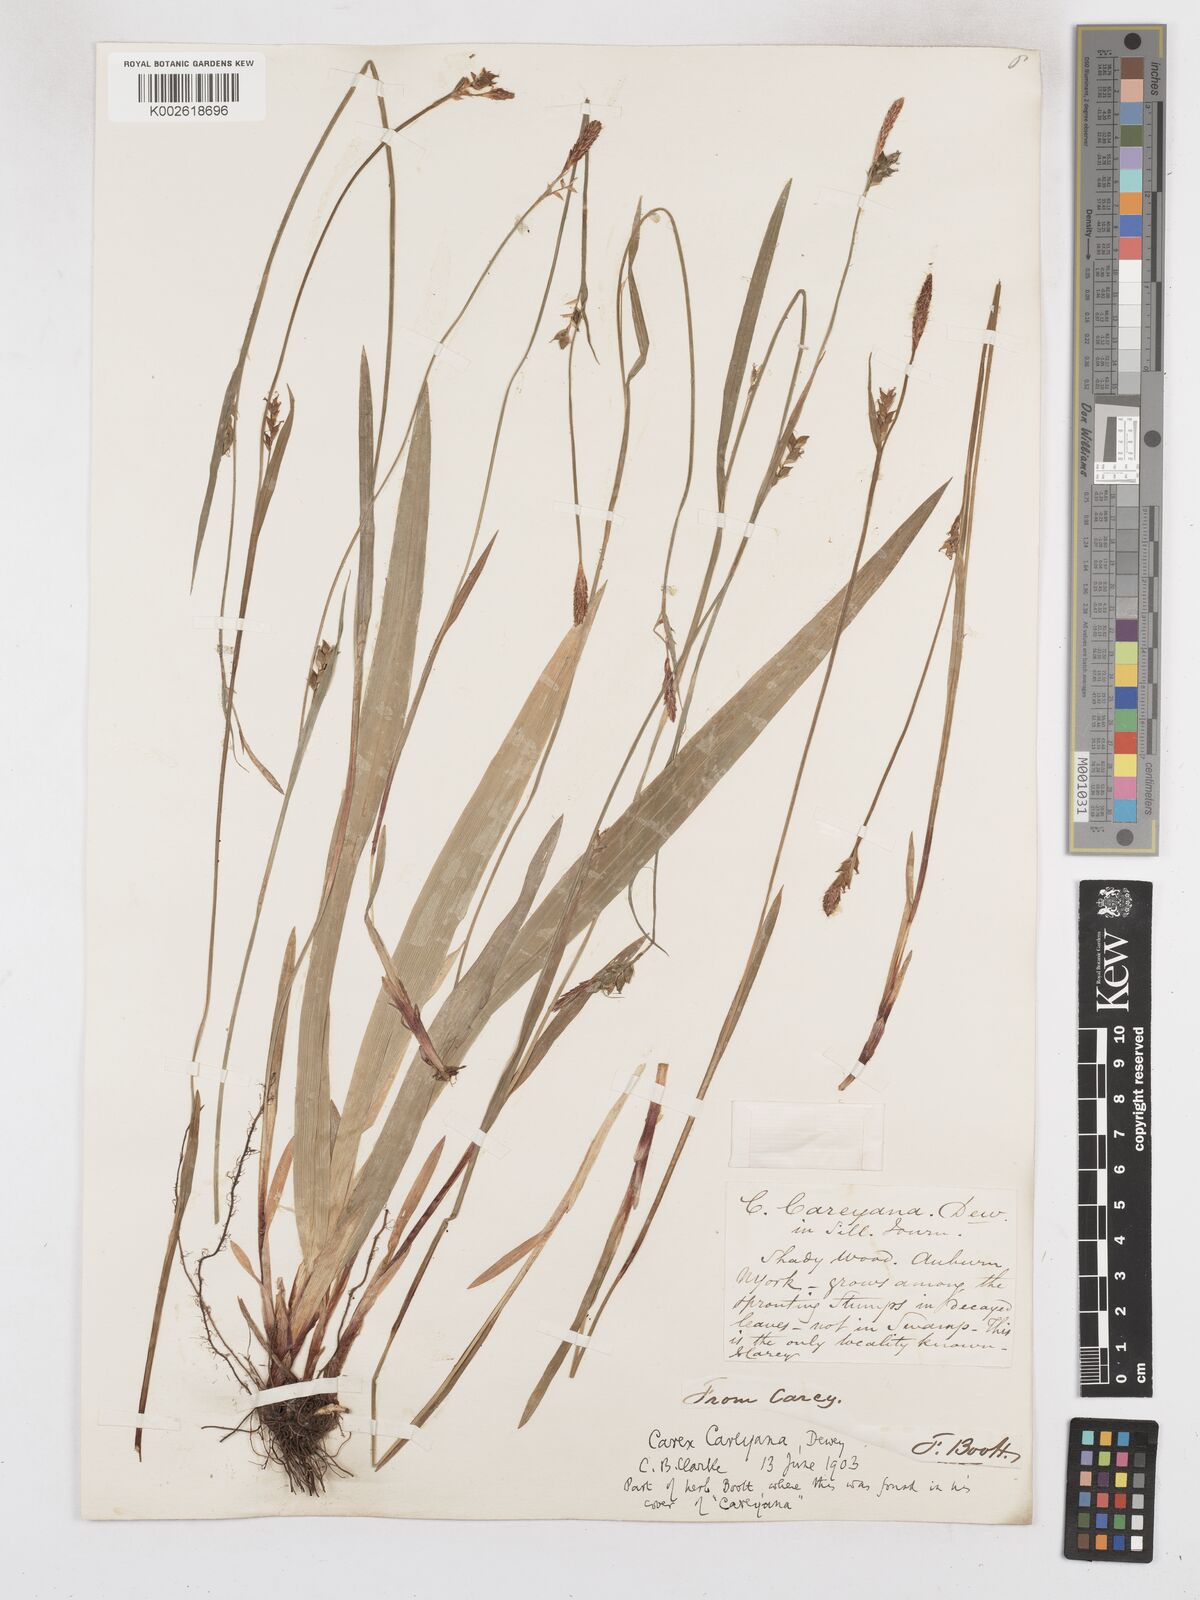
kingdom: Plantae
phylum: Tracheophyta
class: Liliopsida
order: Poales
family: Cyperaceae
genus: Carex
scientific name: Carex careyana
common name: Carey's sedge
